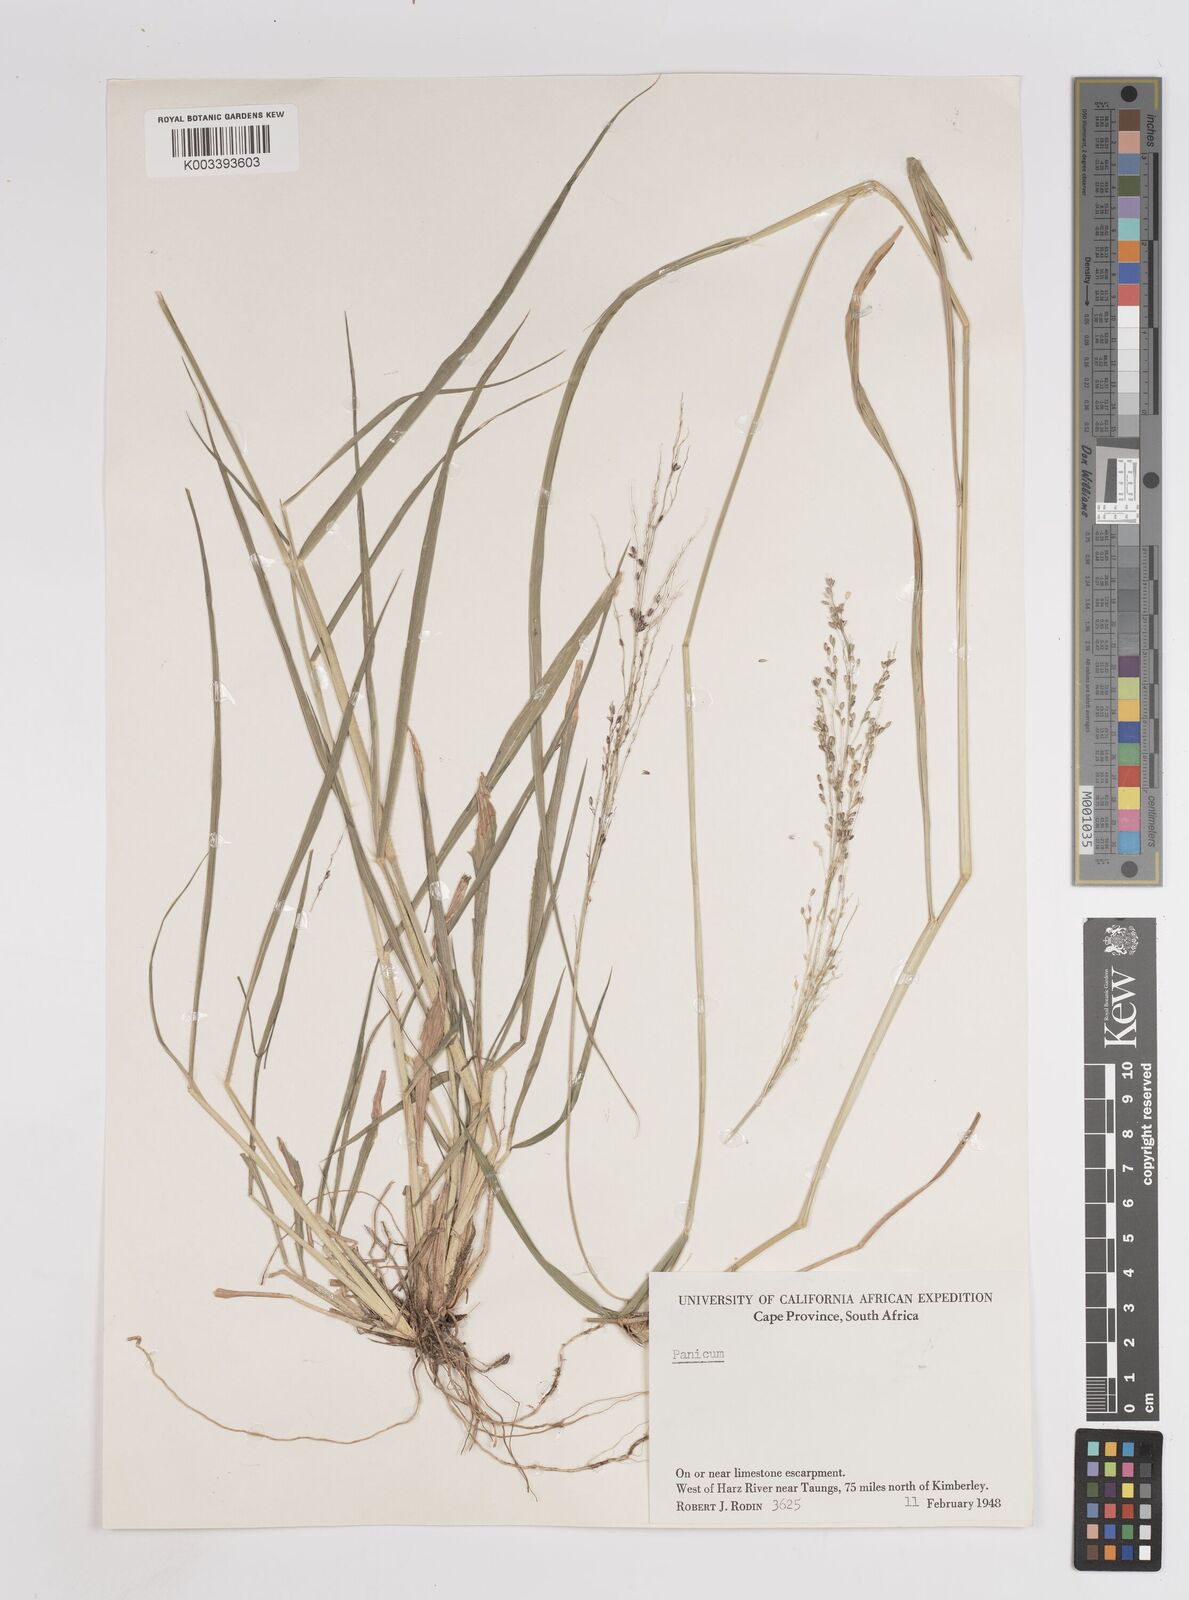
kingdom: Plantae
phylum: Tracheophyta
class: Liliopsida
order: Poales
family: Poaceae
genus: Megathyrsus
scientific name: Megathyrsus maximus
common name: Guineagrass
